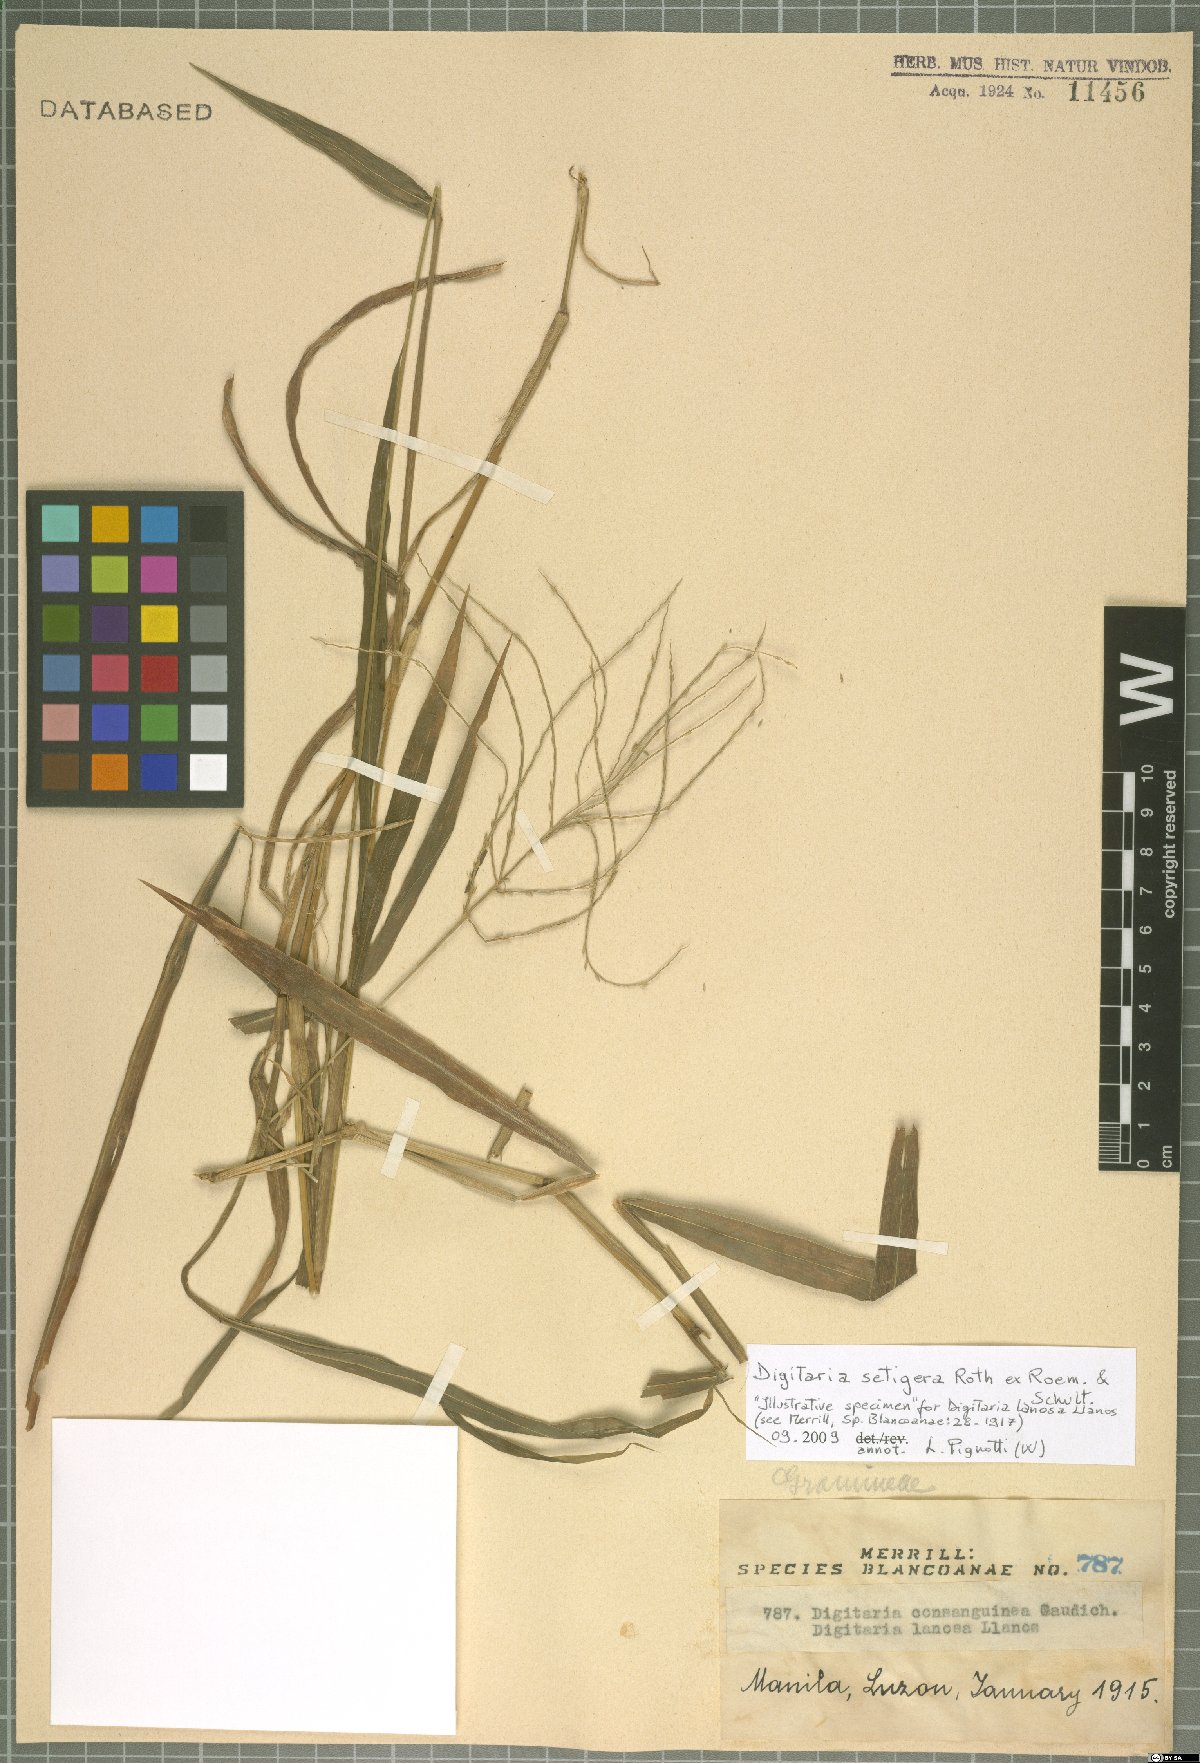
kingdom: Plantae
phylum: Tracheophyta
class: Liliopsida
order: Poales
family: Poaceae
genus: Digitaria
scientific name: Digitaria setigera
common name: East indian crabgrass
